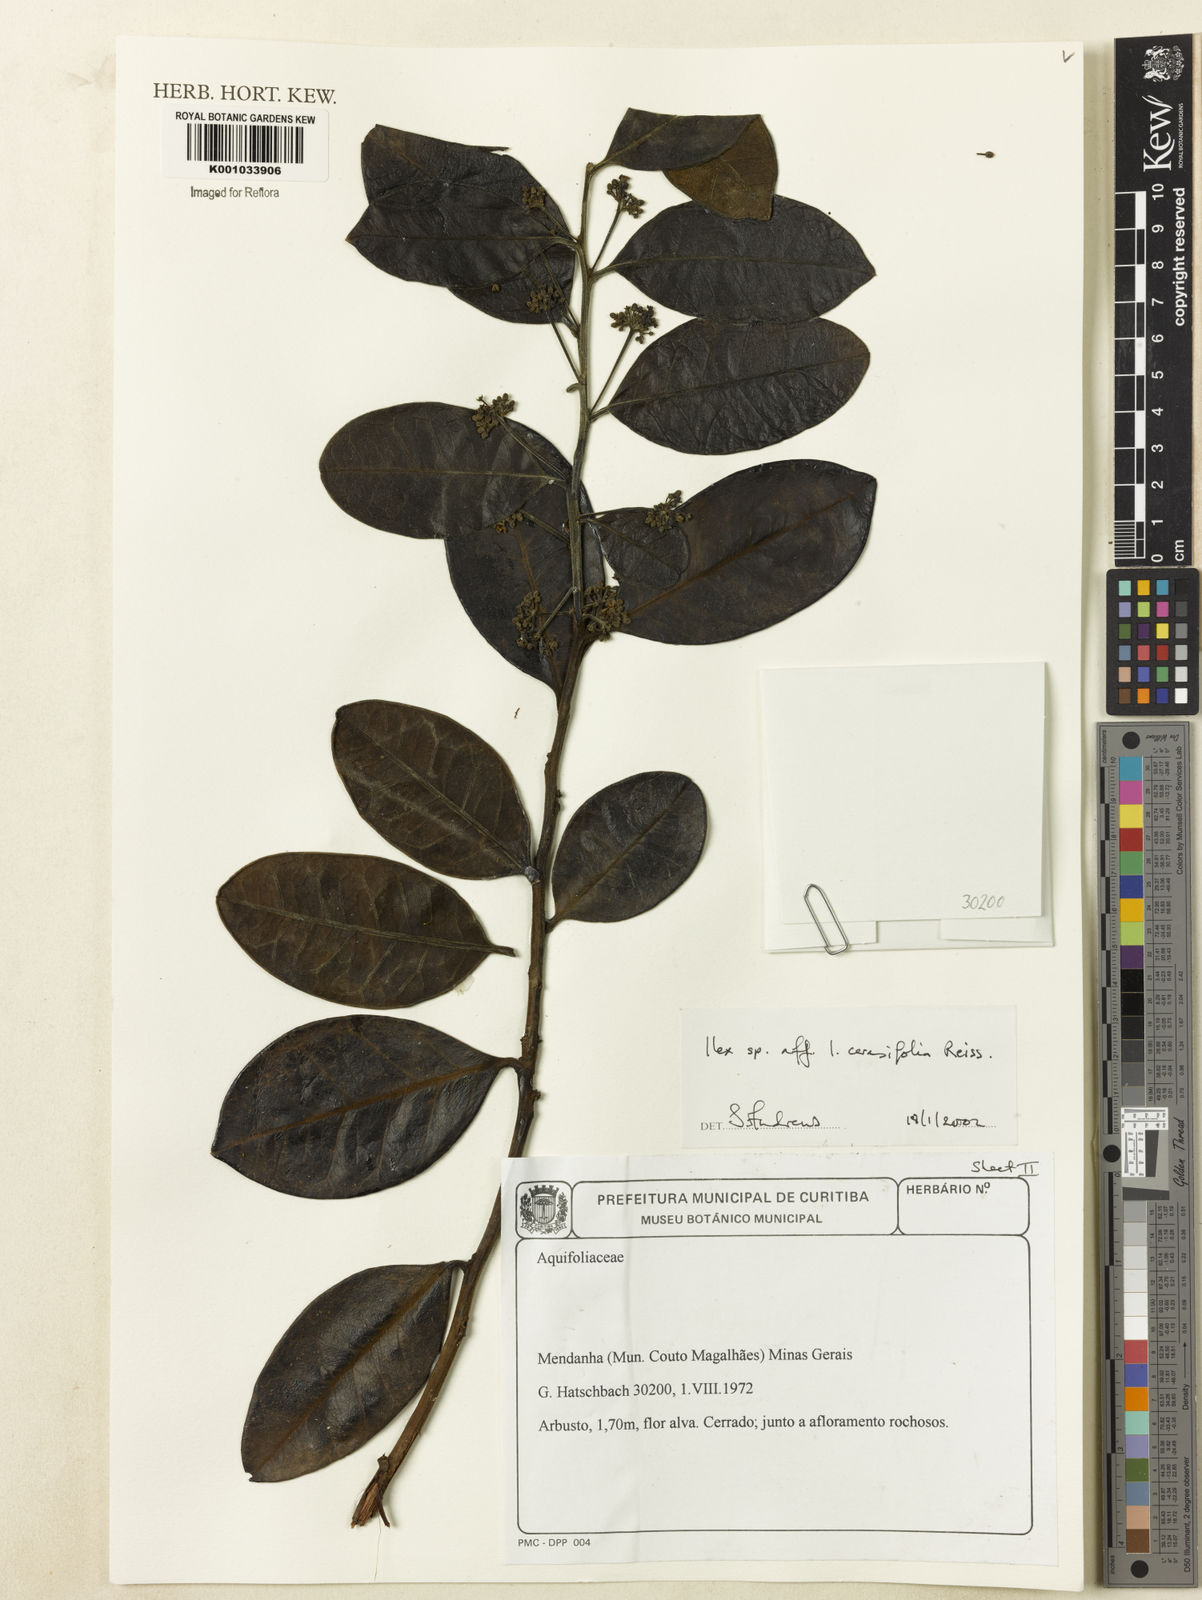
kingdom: Plantae
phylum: Tracheophyta
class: Magnoliopsida
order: Aquifoliales
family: Aquifoliaceae
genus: Ilex
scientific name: Ilex cerasifolia
